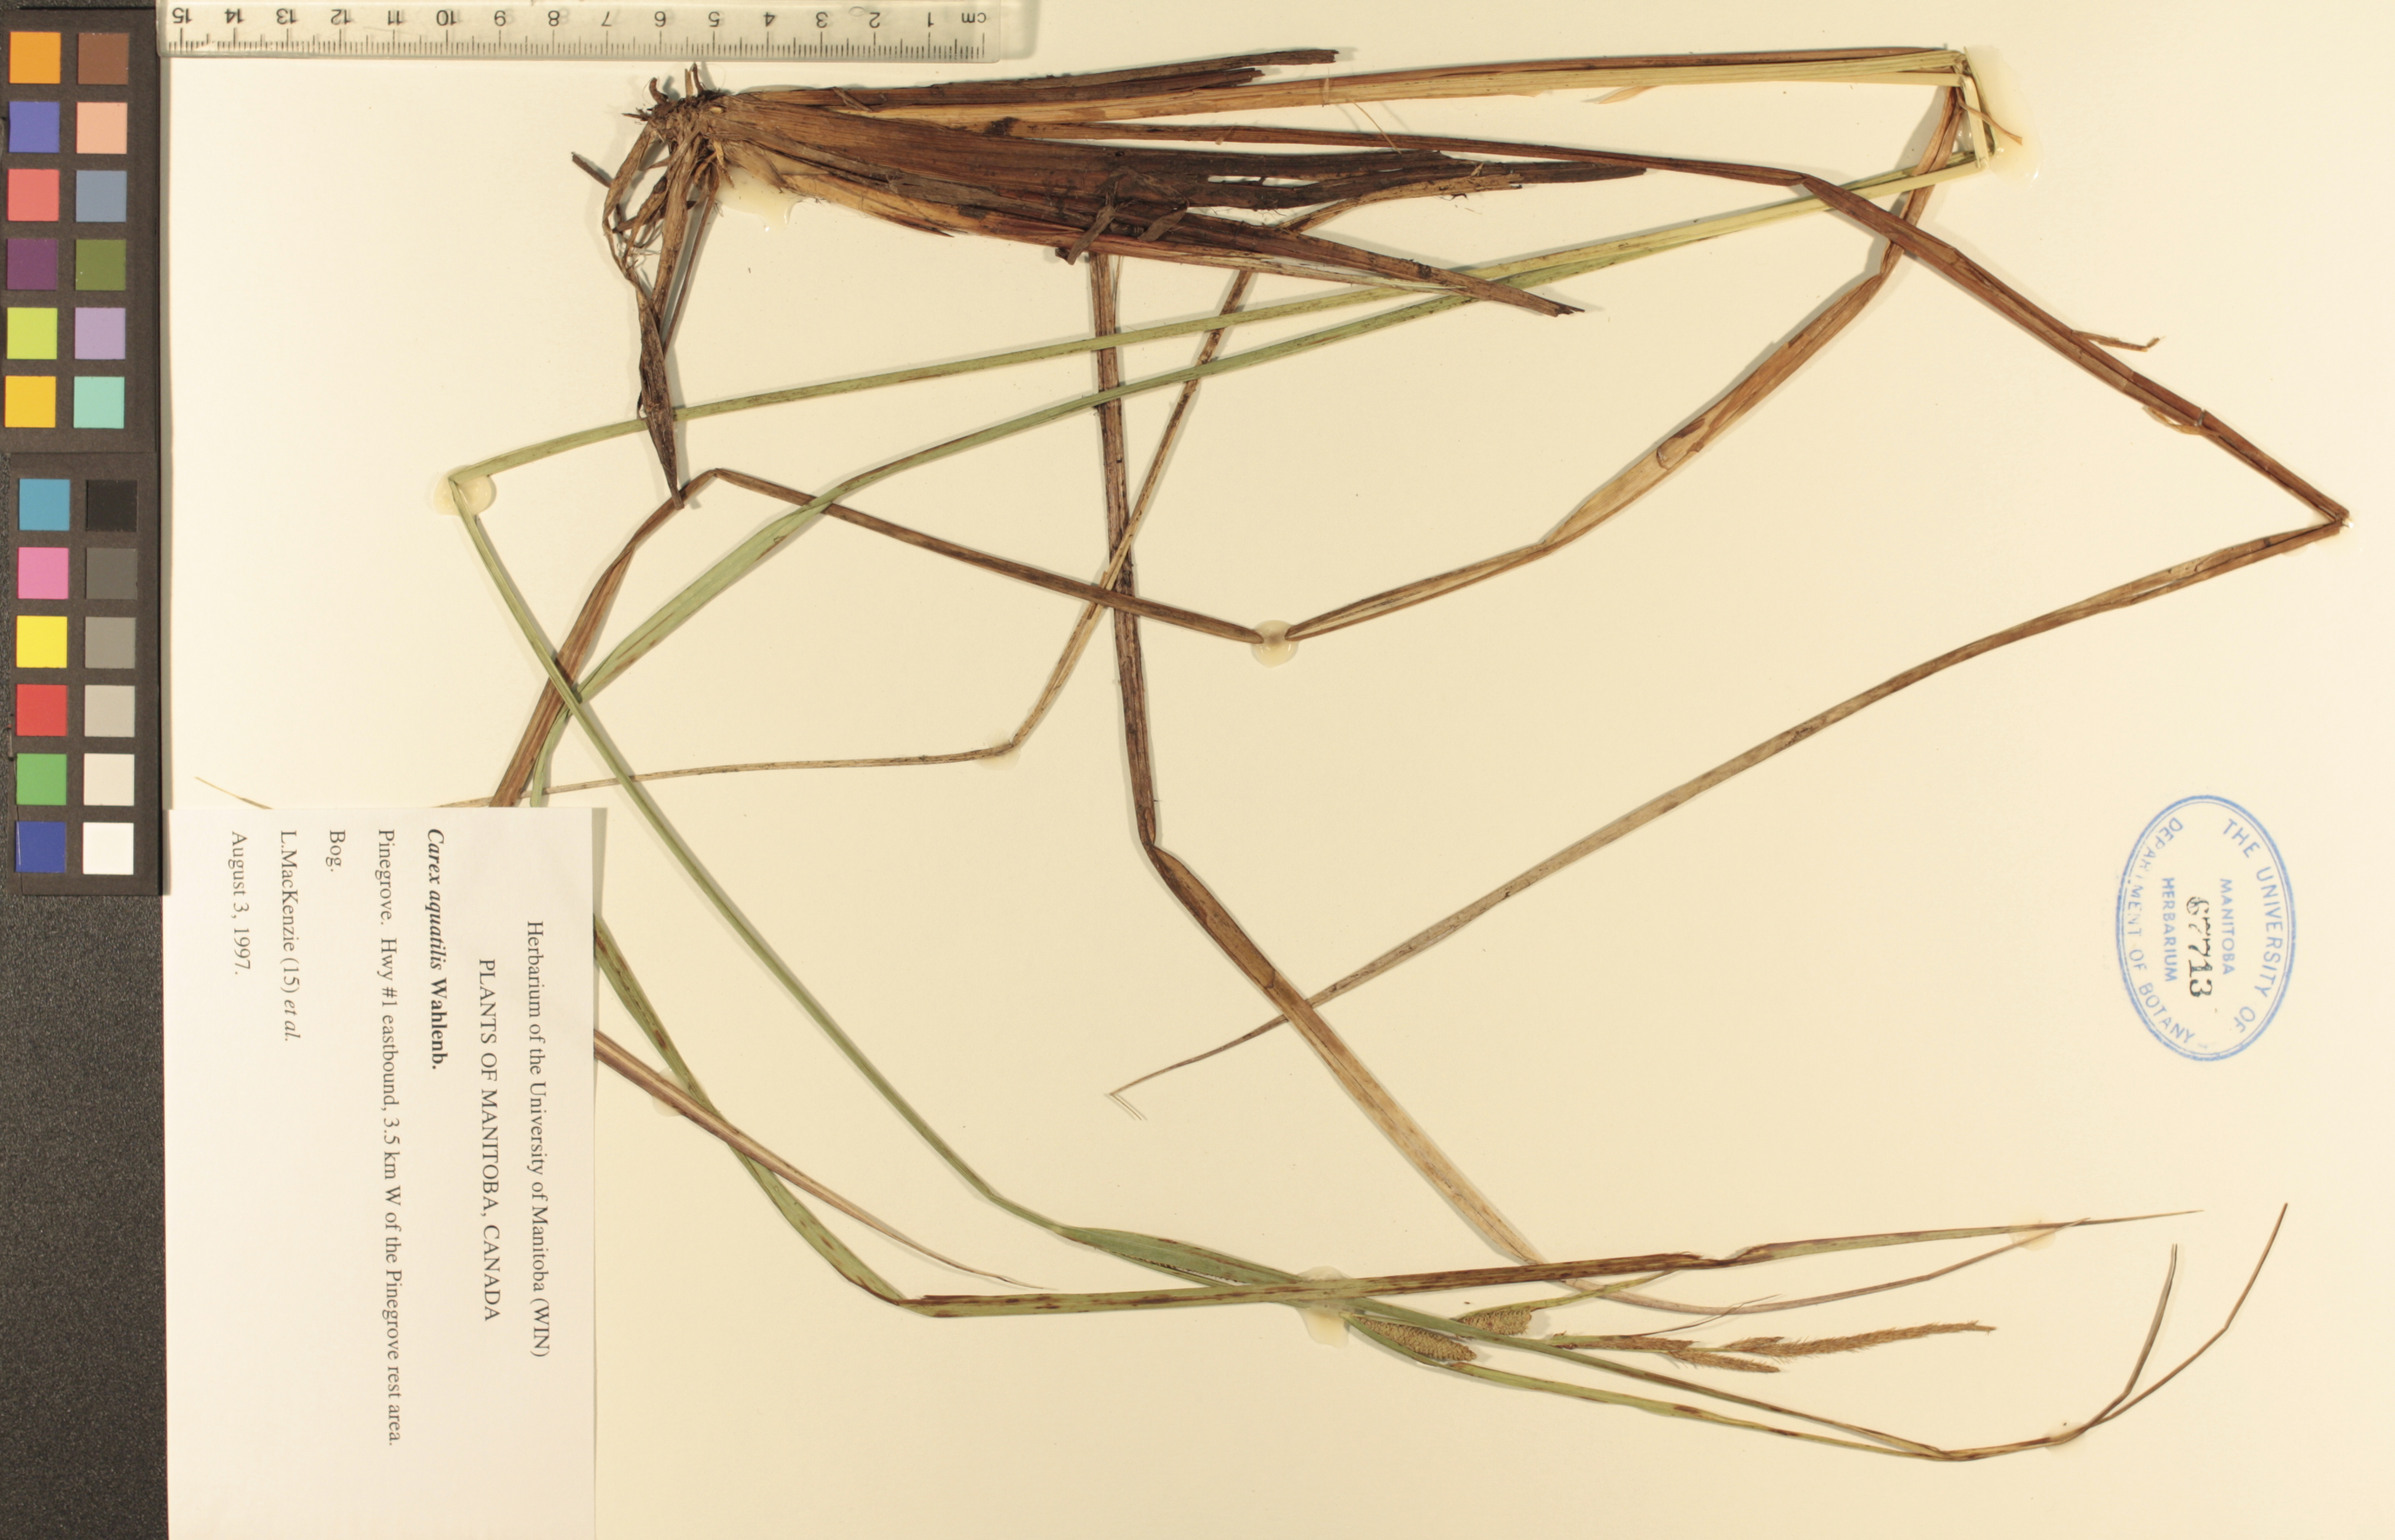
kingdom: Plantae
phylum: Tracheophyta
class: Liliopsida
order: Poales
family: Cyperaceae
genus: Carex
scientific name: Carex aquatilis
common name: Water sedge
